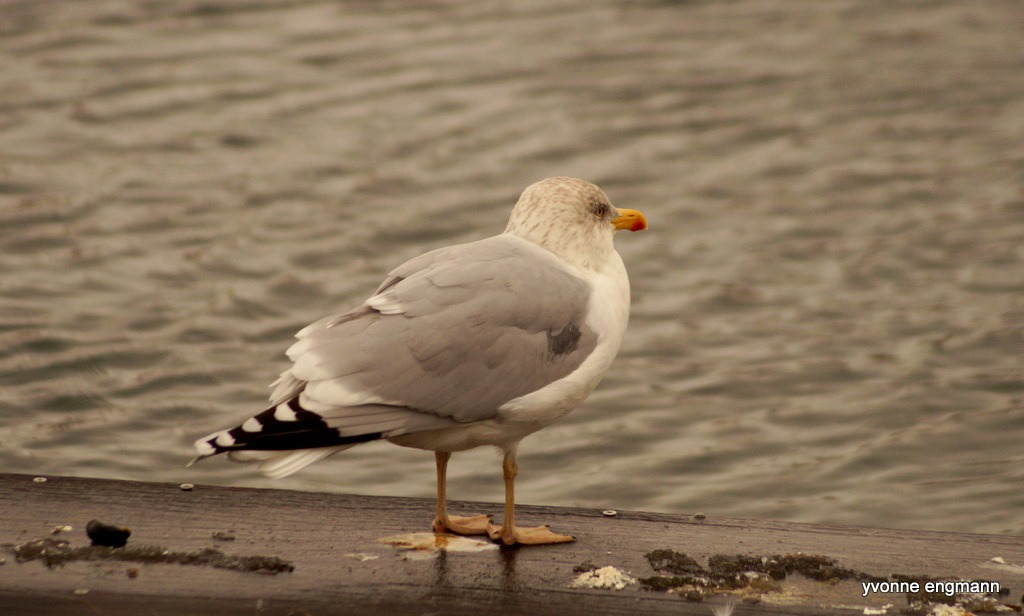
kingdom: Animalia
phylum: Chordata
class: Aves
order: Charadriiformes
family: Laridae
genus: Larus
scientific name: Larus argentatus
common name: Sølvmåge
